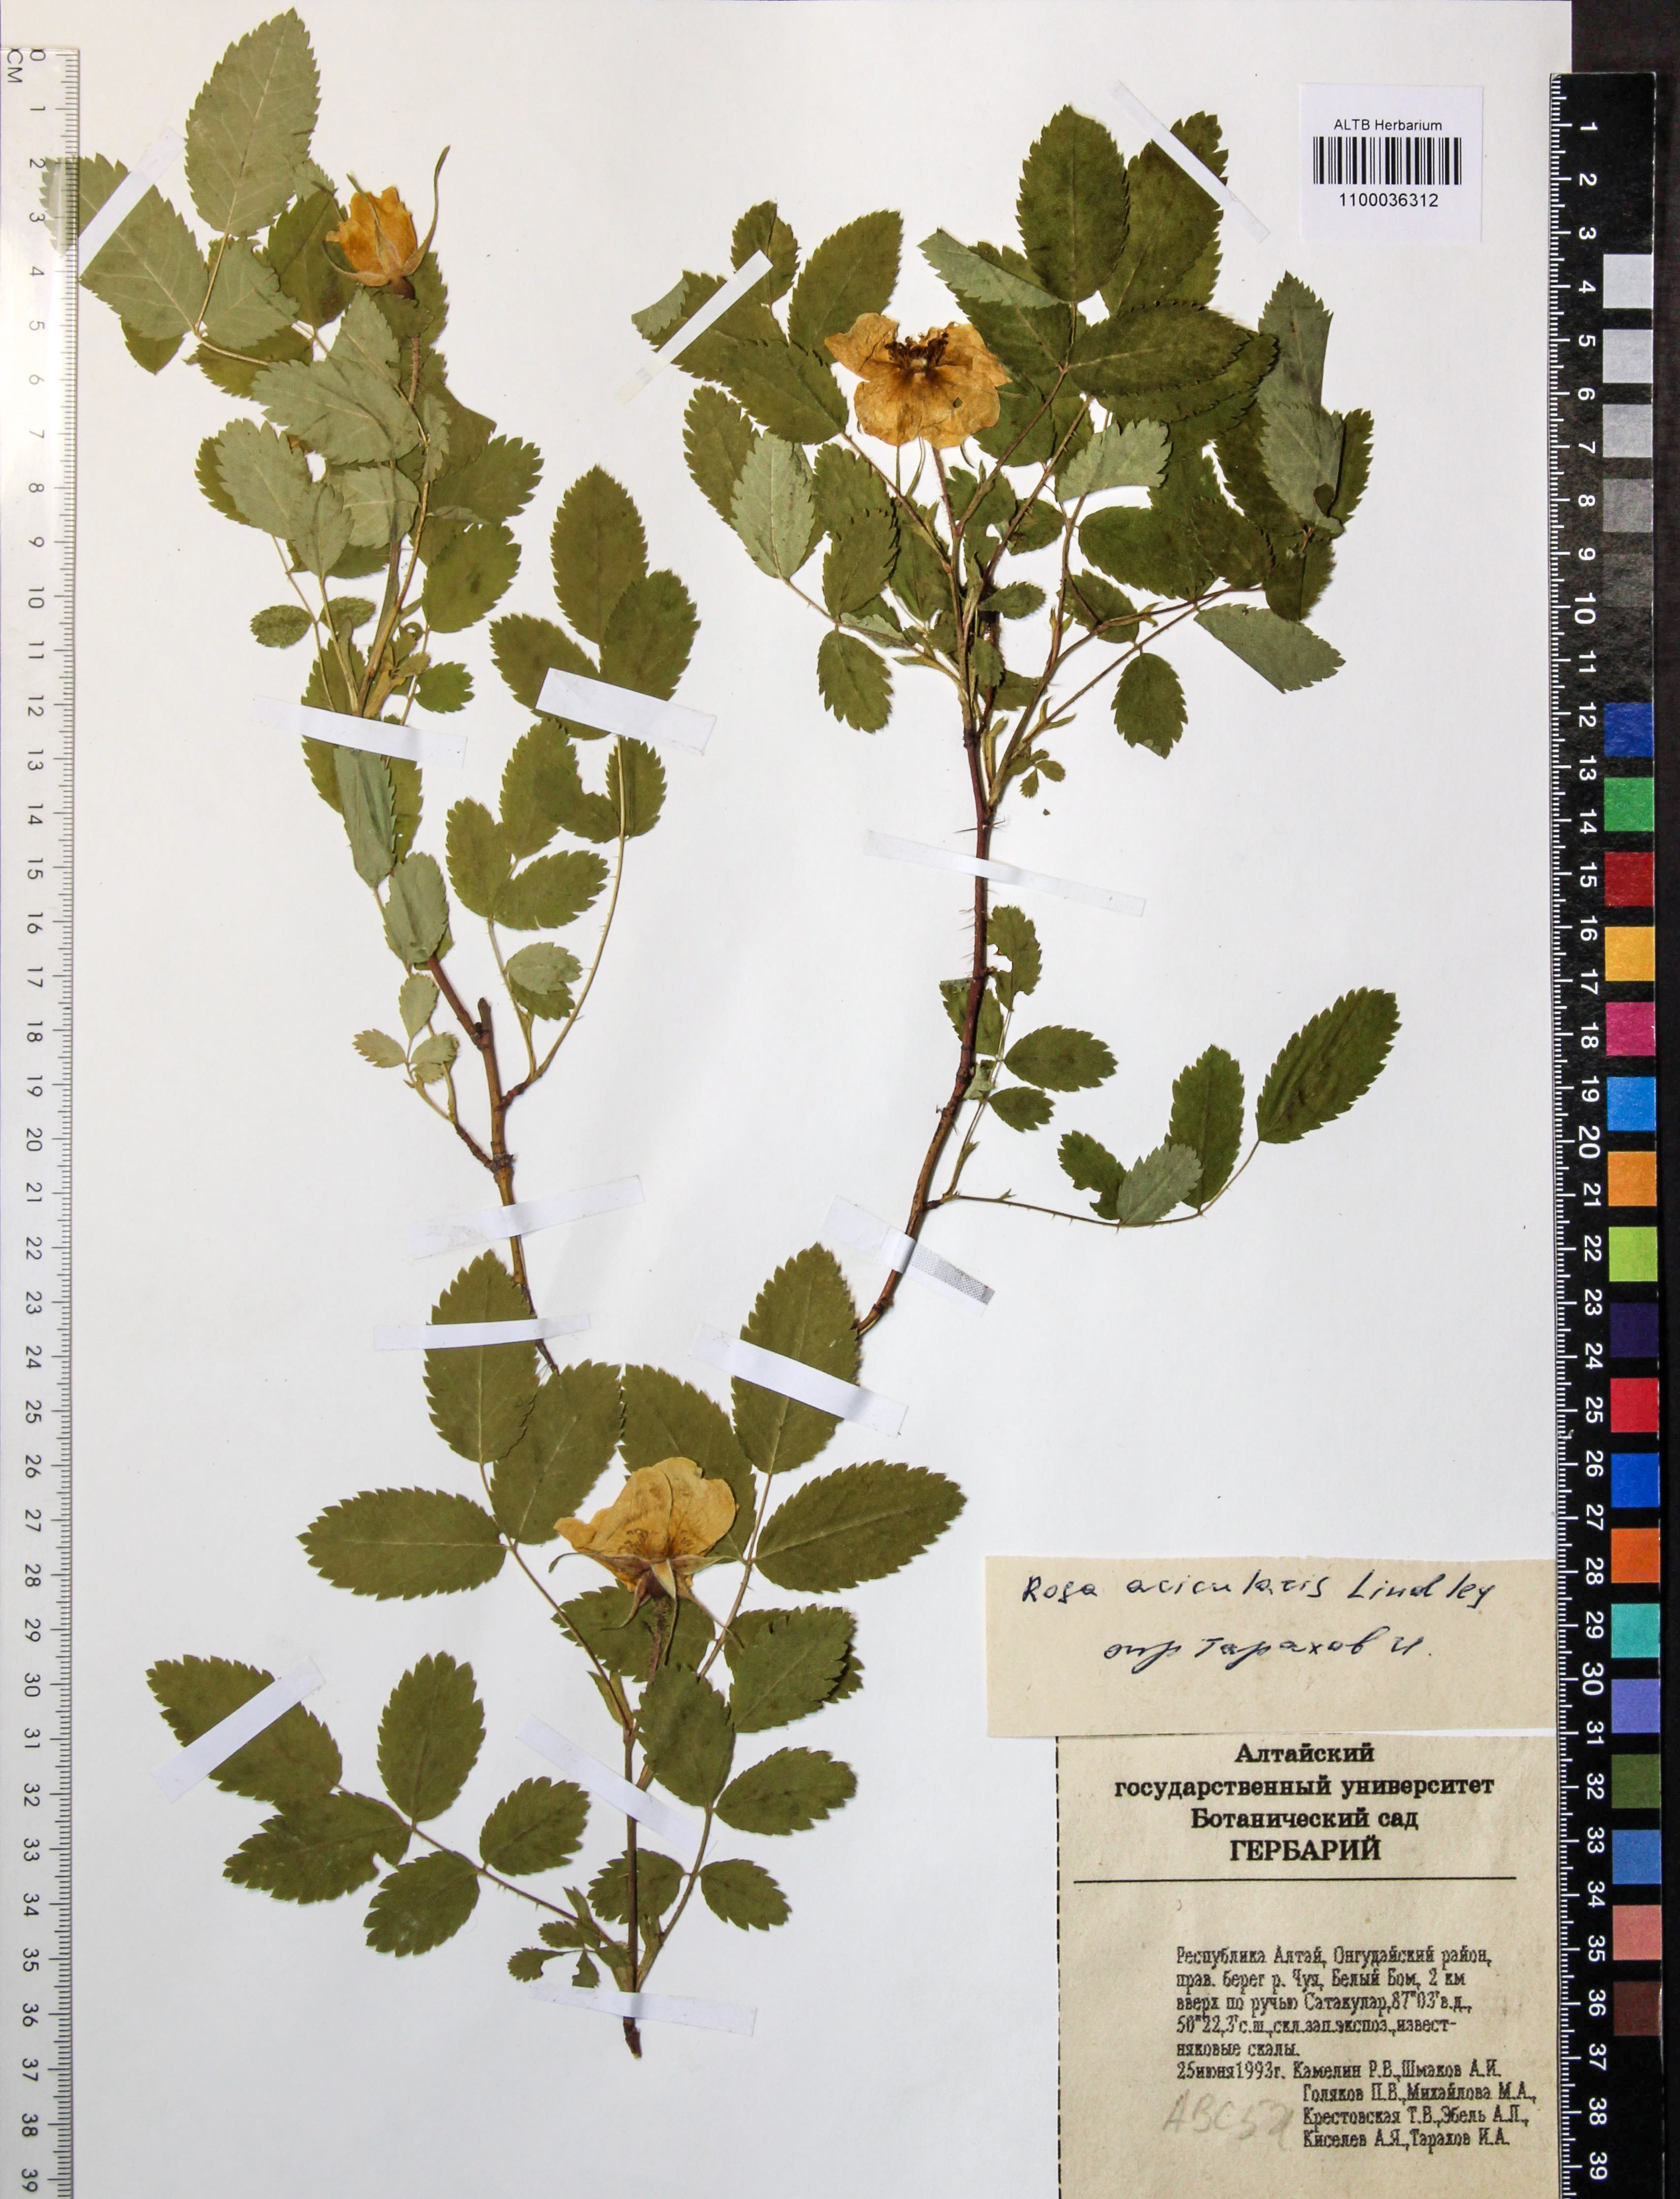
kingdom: Plantae
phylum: Tracheophyta
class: Magnoliopsida
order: Rosales
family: Rosaceae
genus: Rosa
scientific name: Rosa acicularis
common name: Prickly rose
